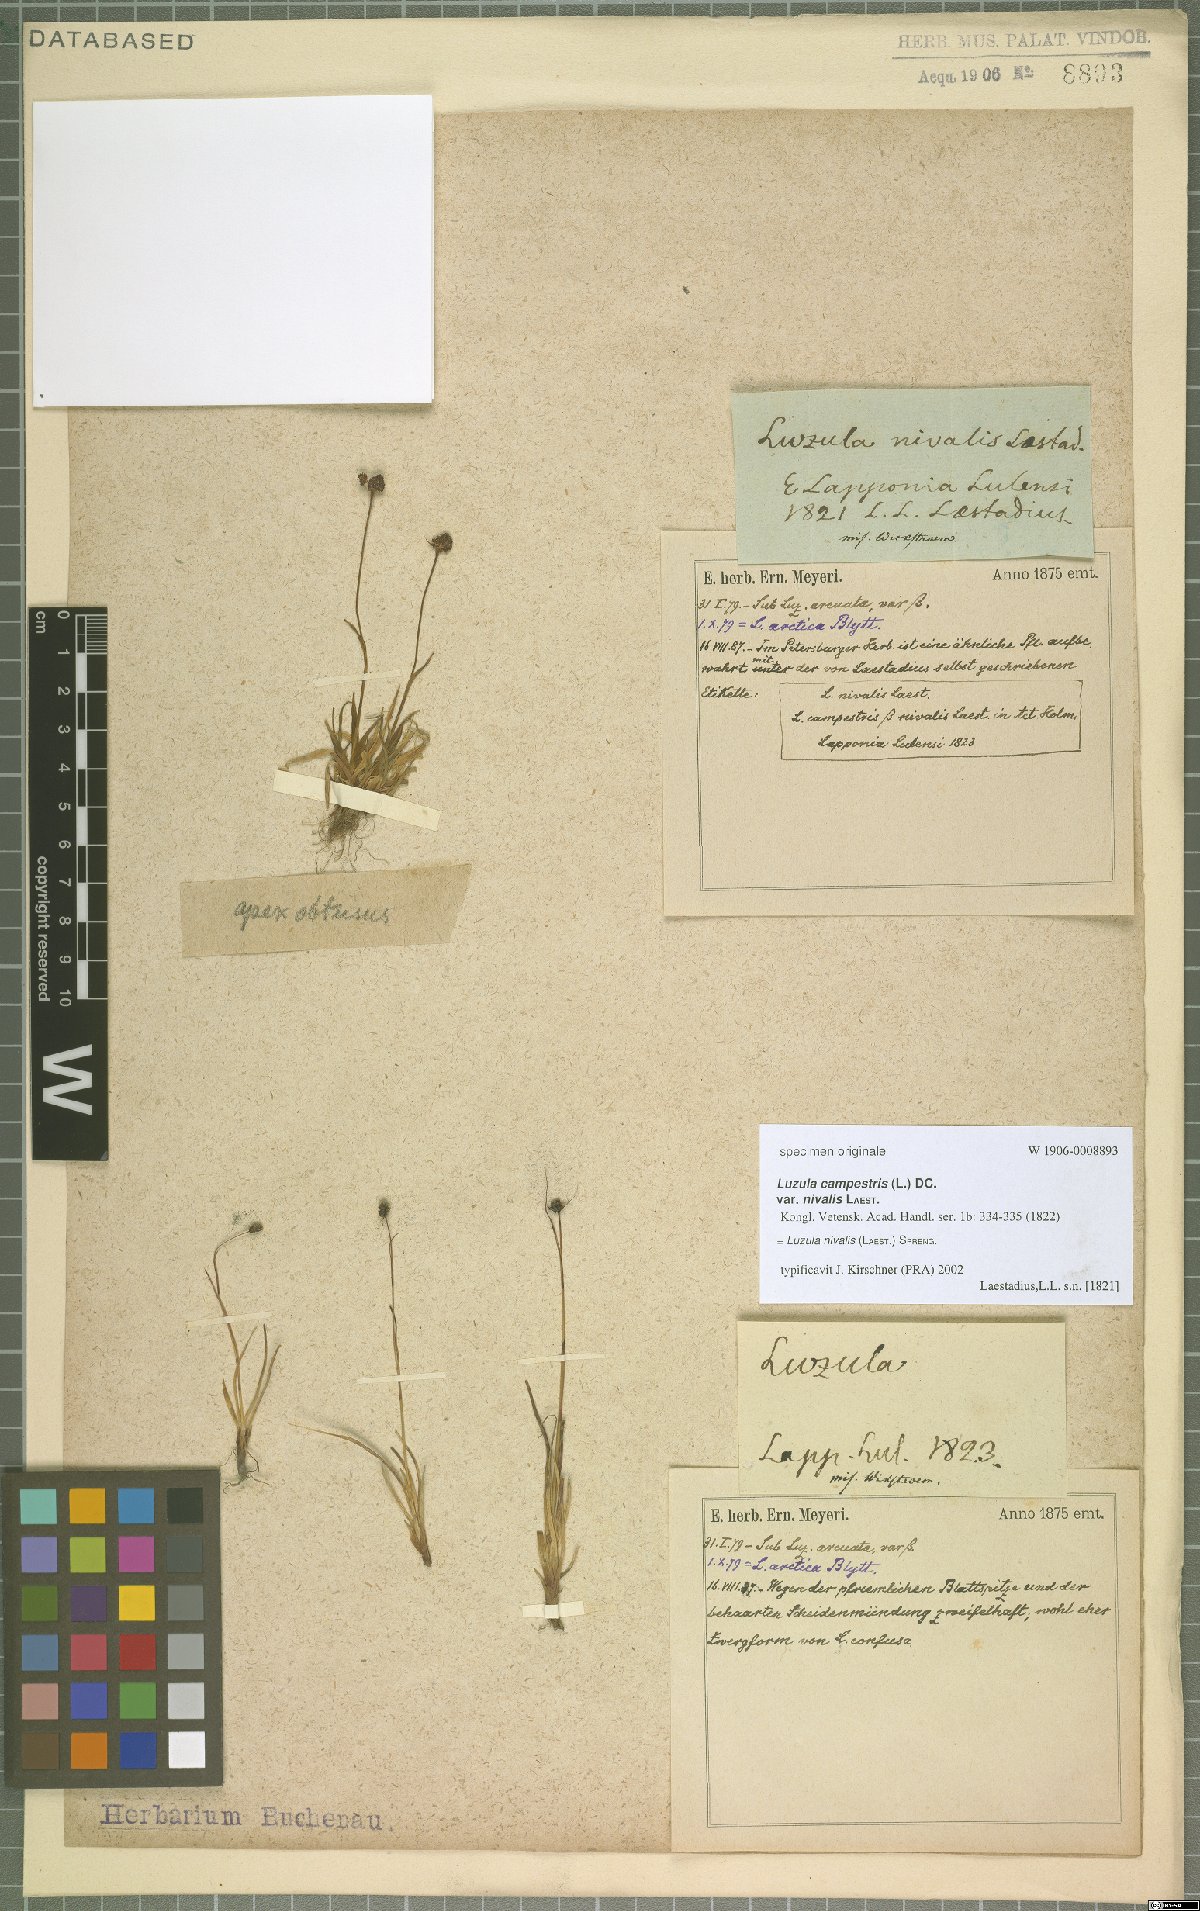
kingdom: Plantae
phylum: Tracheophyta
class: Liliopsida
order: Poales
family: Juncaceae
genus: Luzula
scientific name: Luzula nivalis
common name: Arctic woodrush
